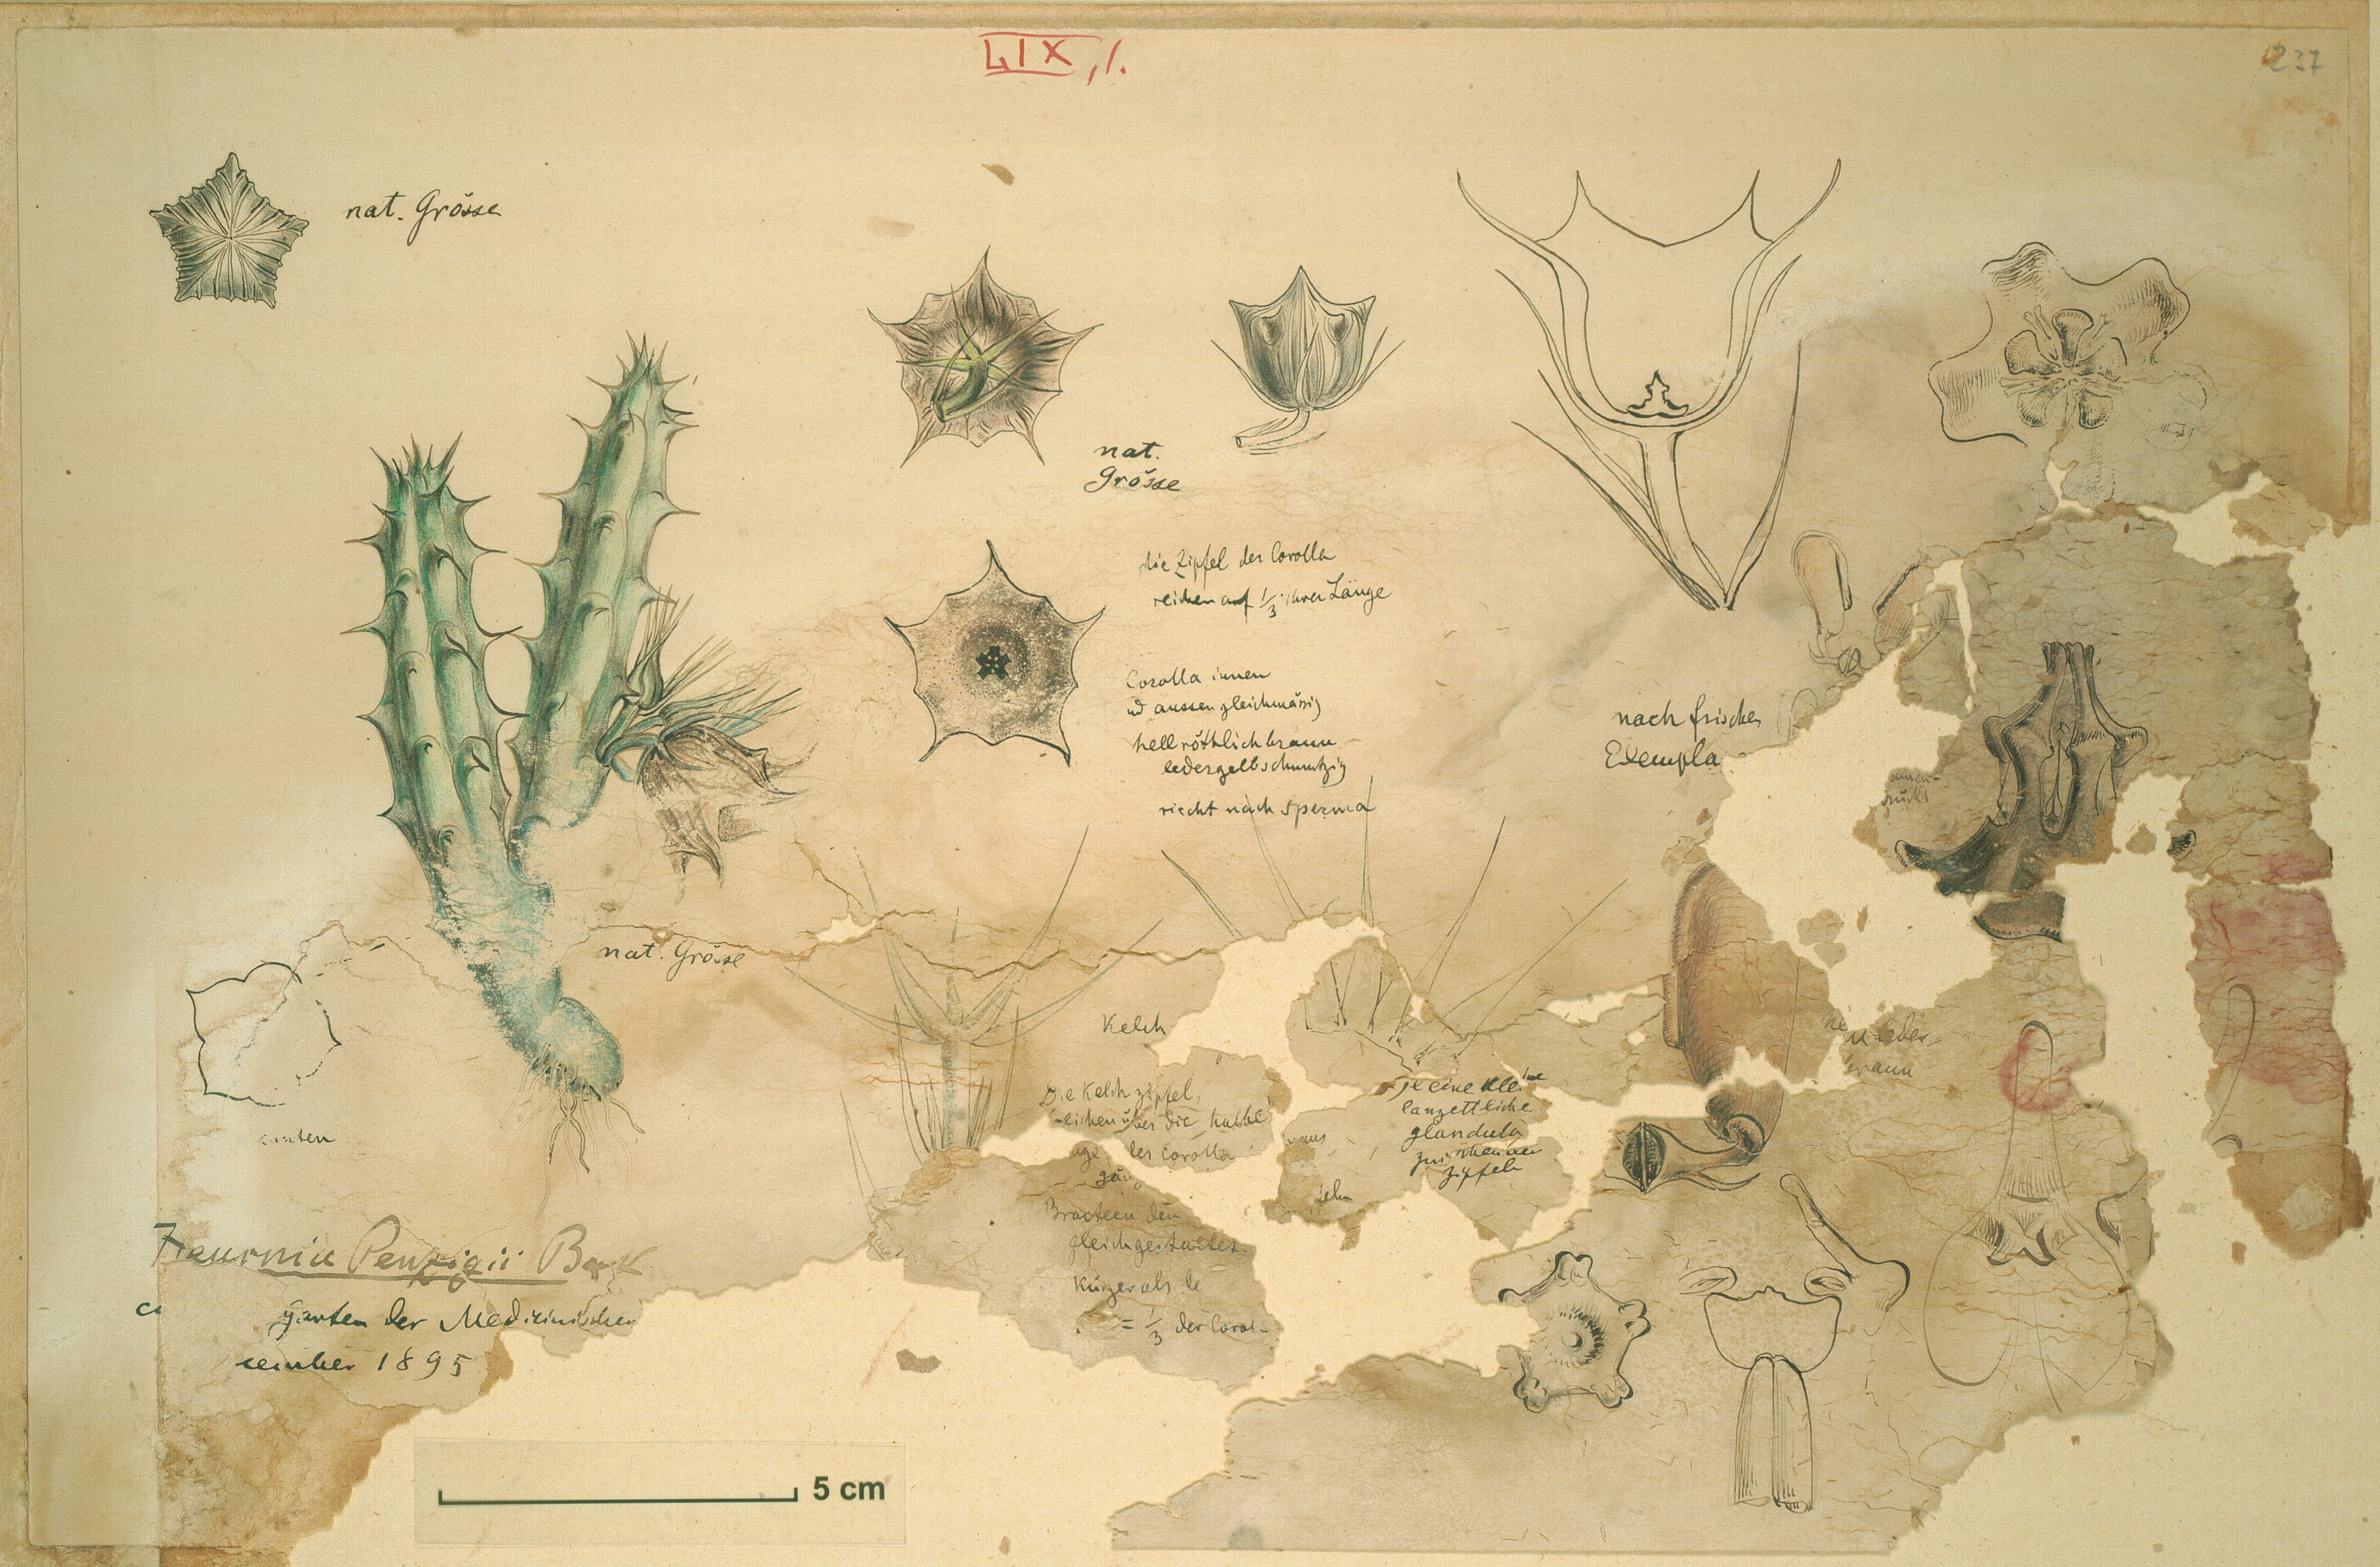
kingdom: Plantae
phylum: Tracheophyta
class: Magnoliopsida
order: Gentianales
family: Apocynaceae
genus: Ceropegia
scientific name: Ceropegia macrocarpa
